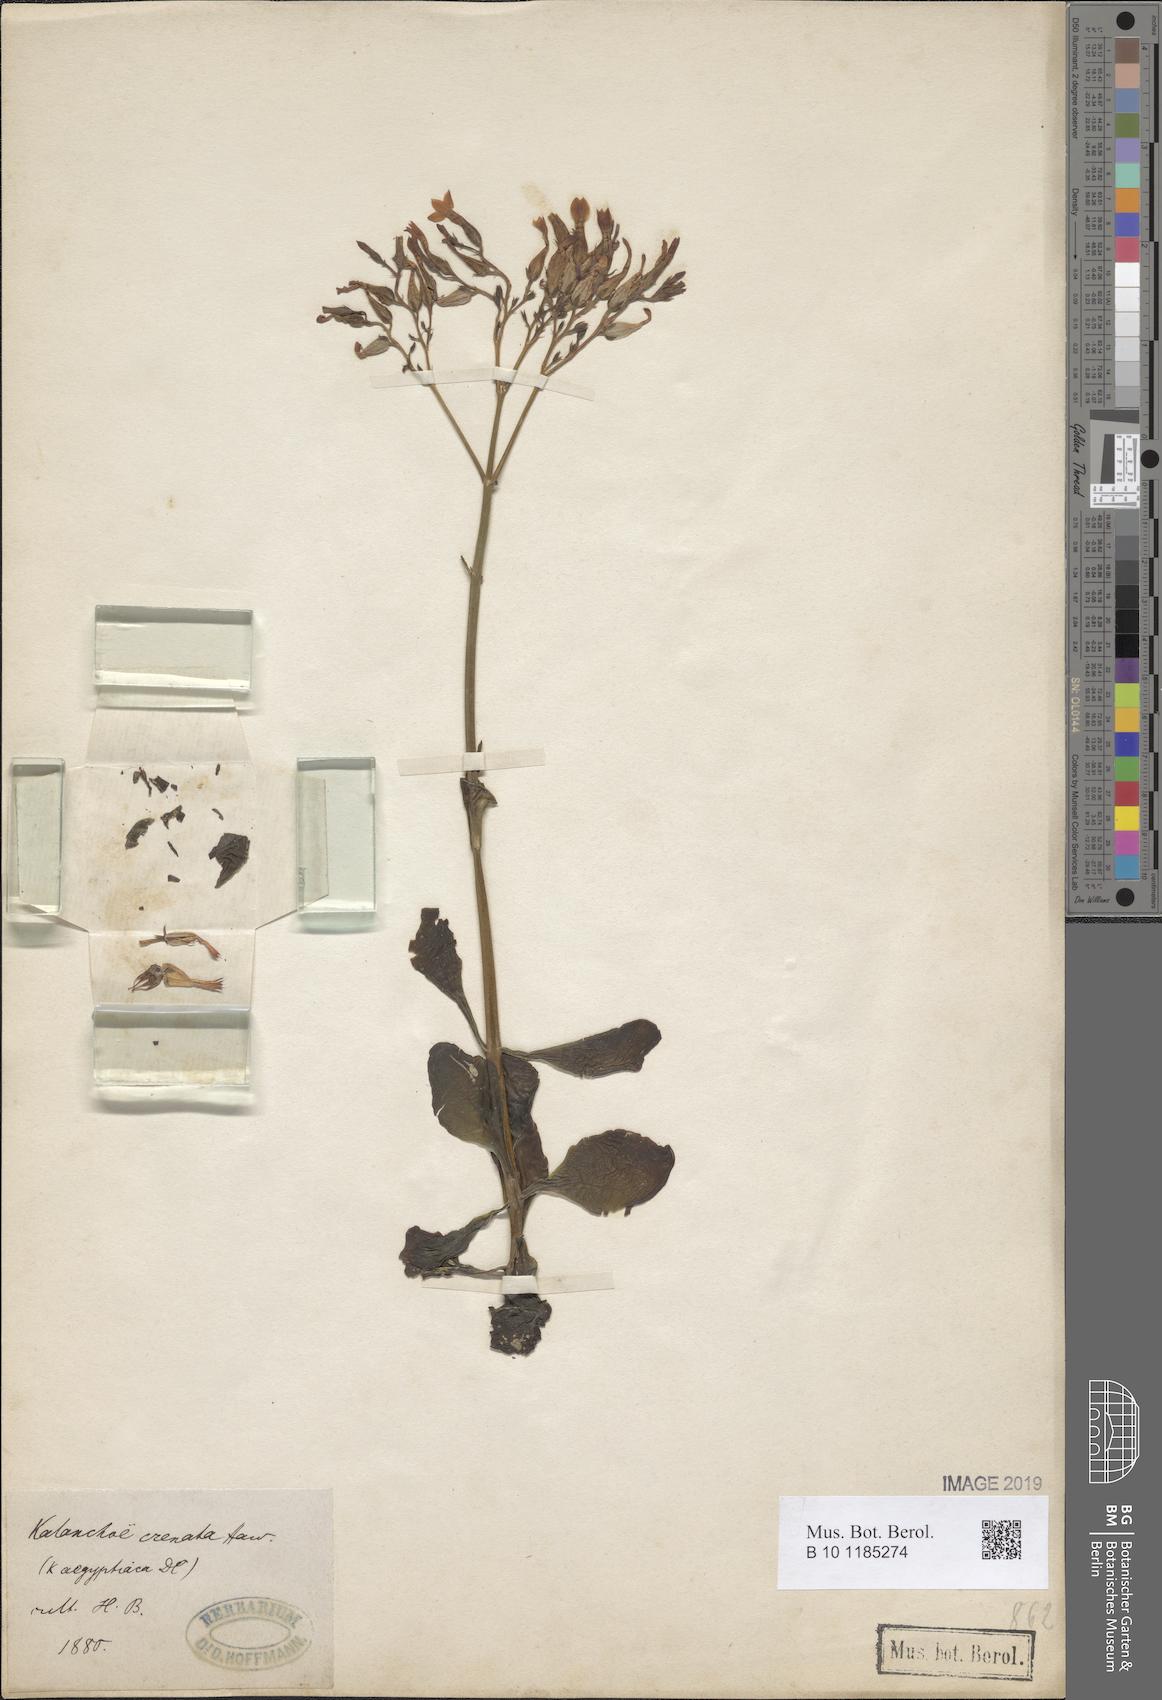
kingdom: Plantae
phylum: Tracheophyta
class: Magnoliopsida
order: Saxifragales
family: Crassulaceae
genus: Kalanchoe
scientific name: Kalanchoe crenata
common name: Neverdie
